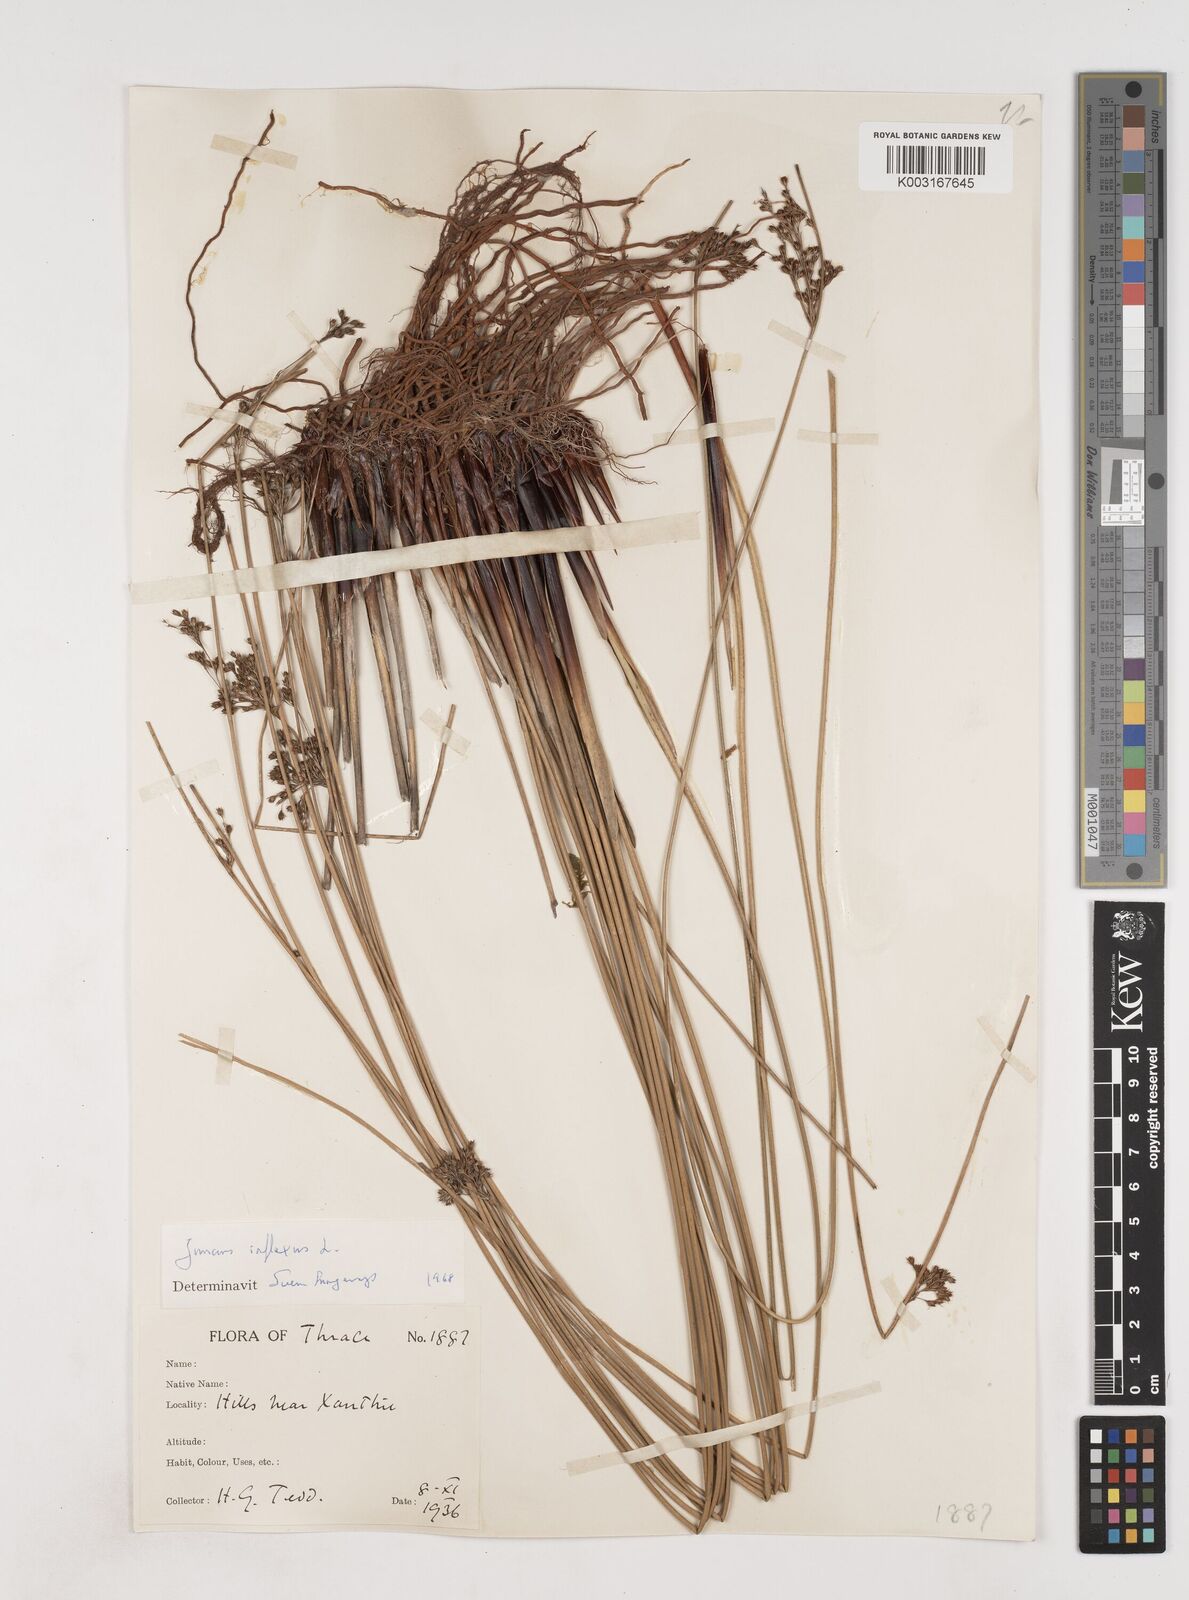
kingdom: Plantae
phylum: Tracheophyta
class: Liliopsida
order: Poales
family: Juncaceae
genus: Juncus
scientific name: Juncus inflexus
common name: Hard rush
